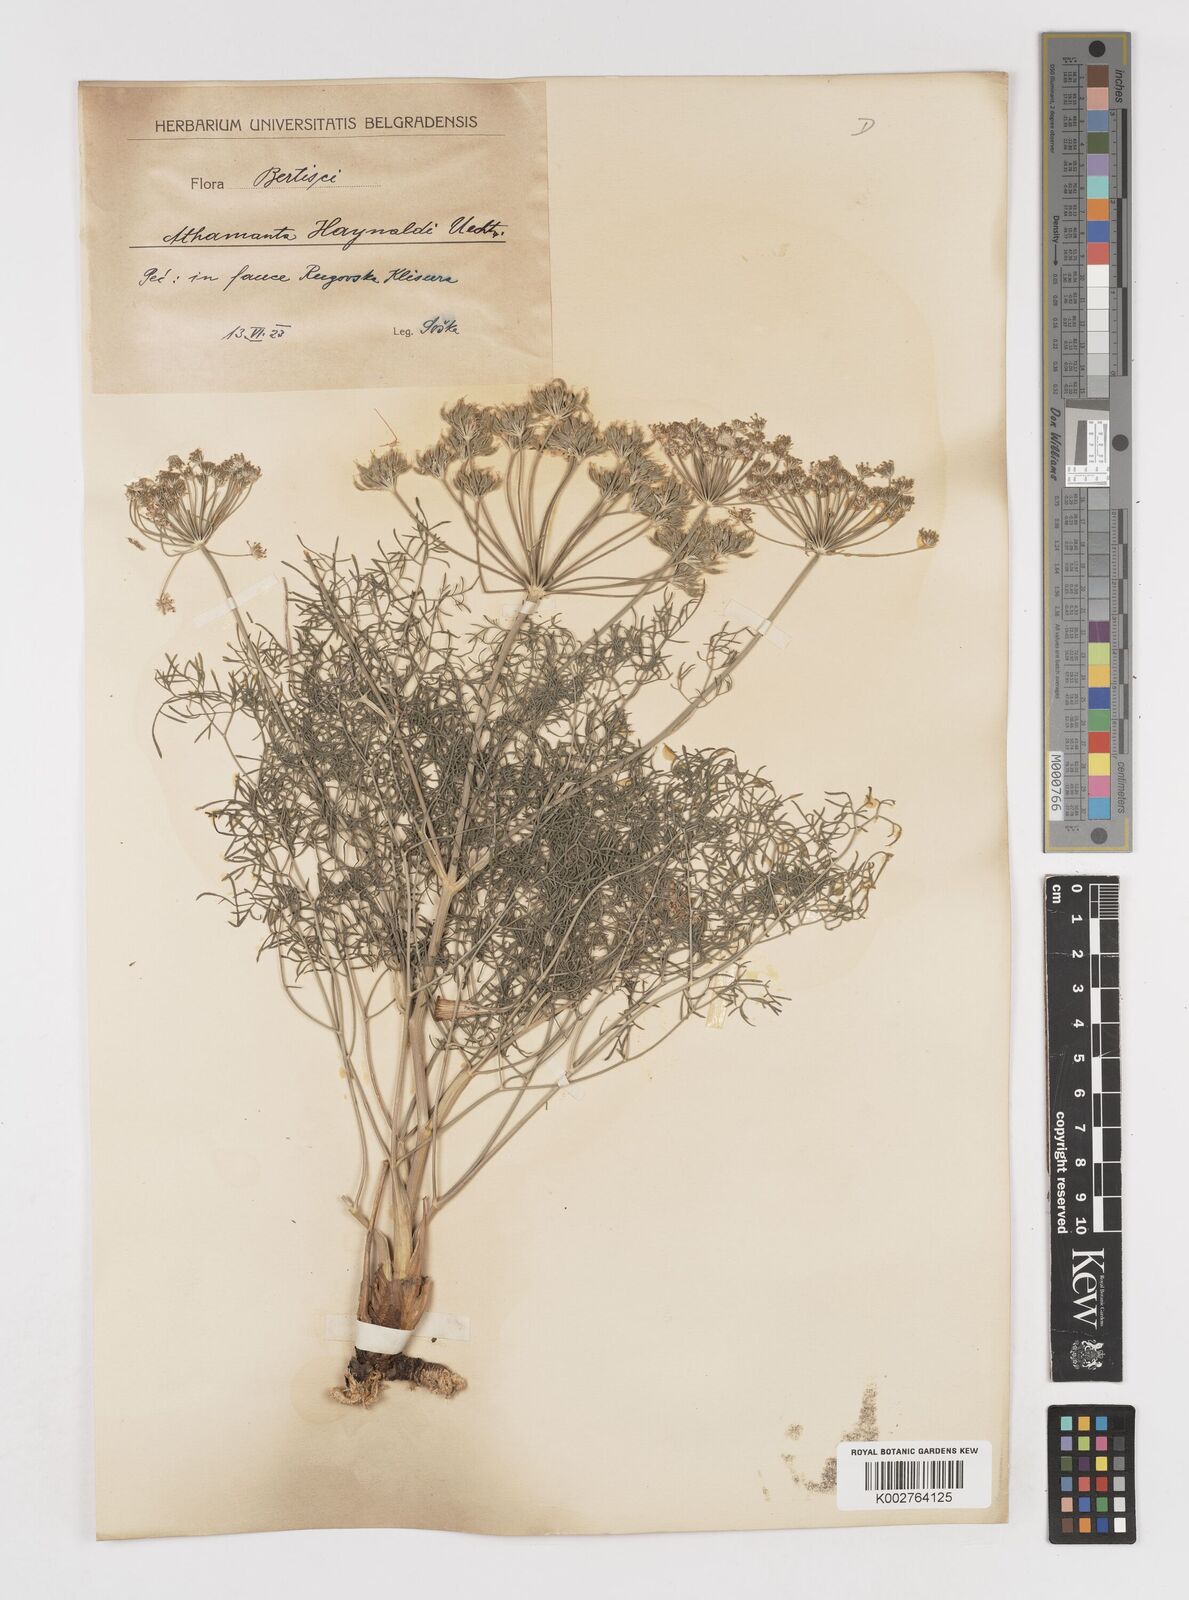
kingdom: Plantae
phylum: Tracheophyta
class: Magnoliopsida
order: Apiales
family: Apiaceae
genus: Athamanta
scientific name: Athamanta turbith
